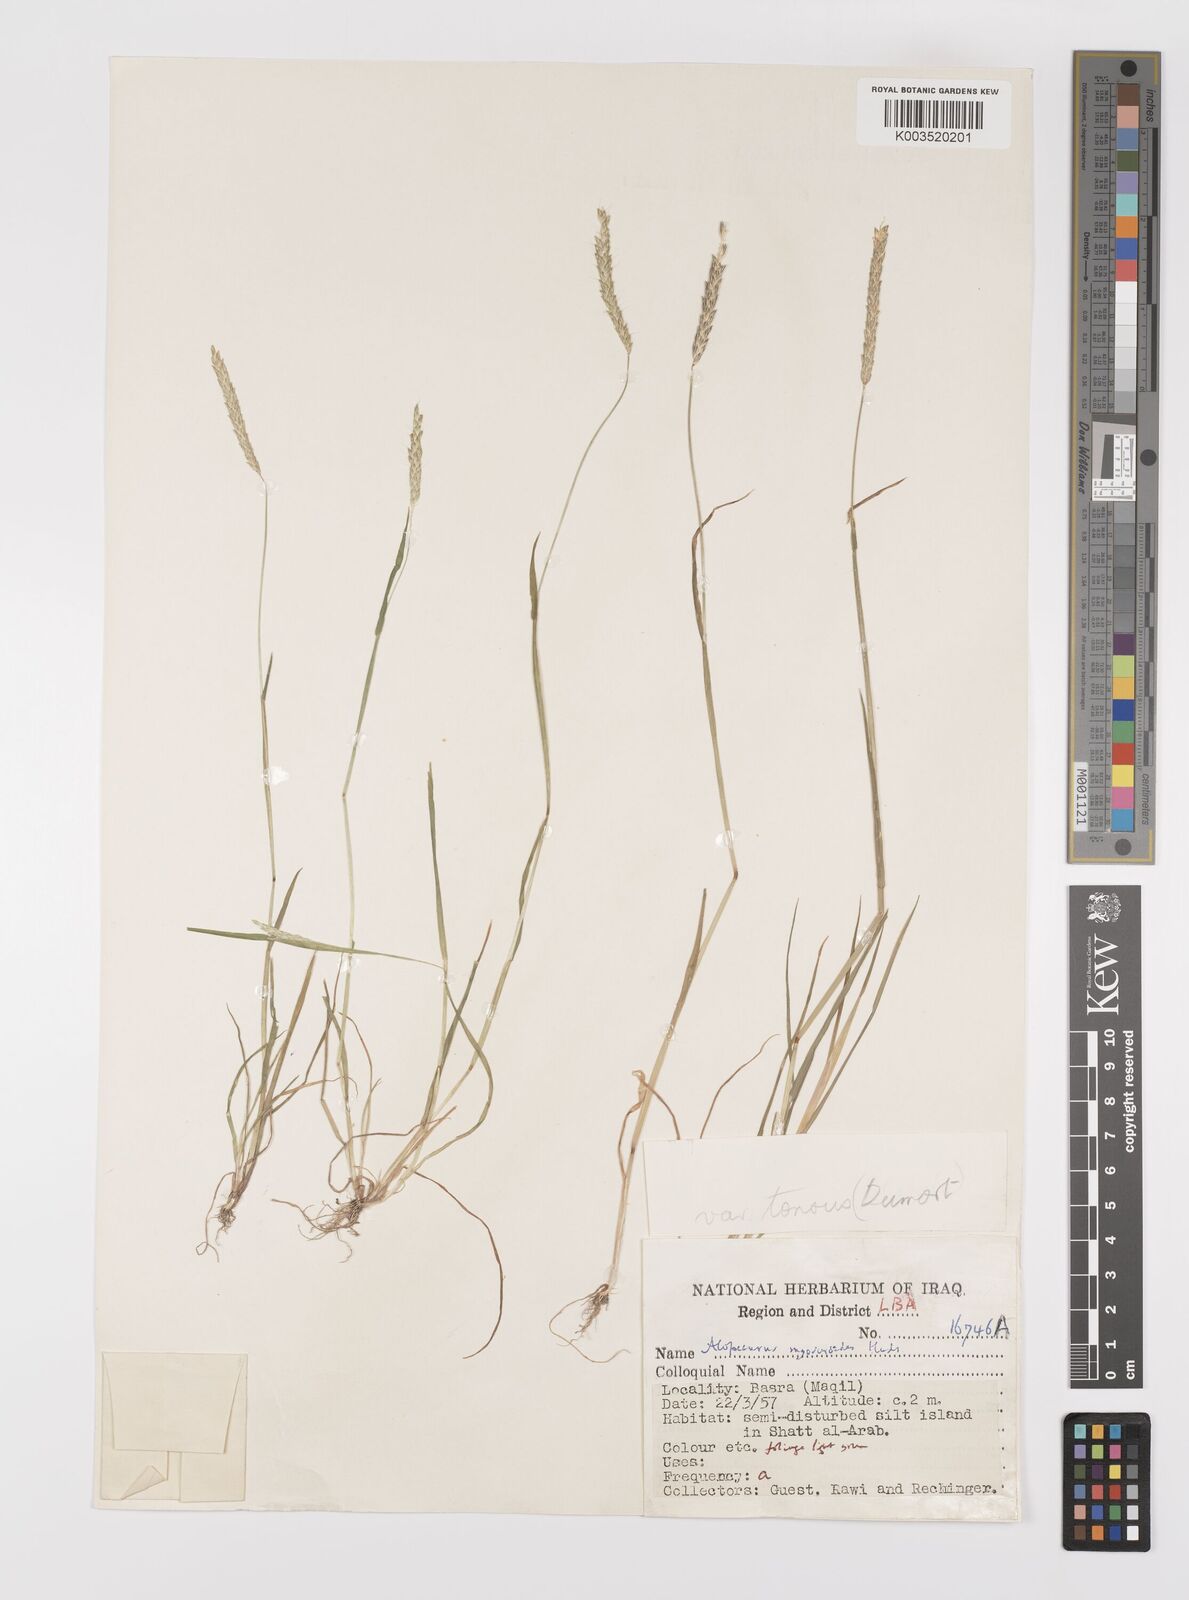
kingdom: Plantae
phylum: Tracheophyta
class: Liliopsida
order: Poales
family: Poaceae
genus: Alopecurus
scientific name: Alopecurus myosuroides
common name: Black-grass
